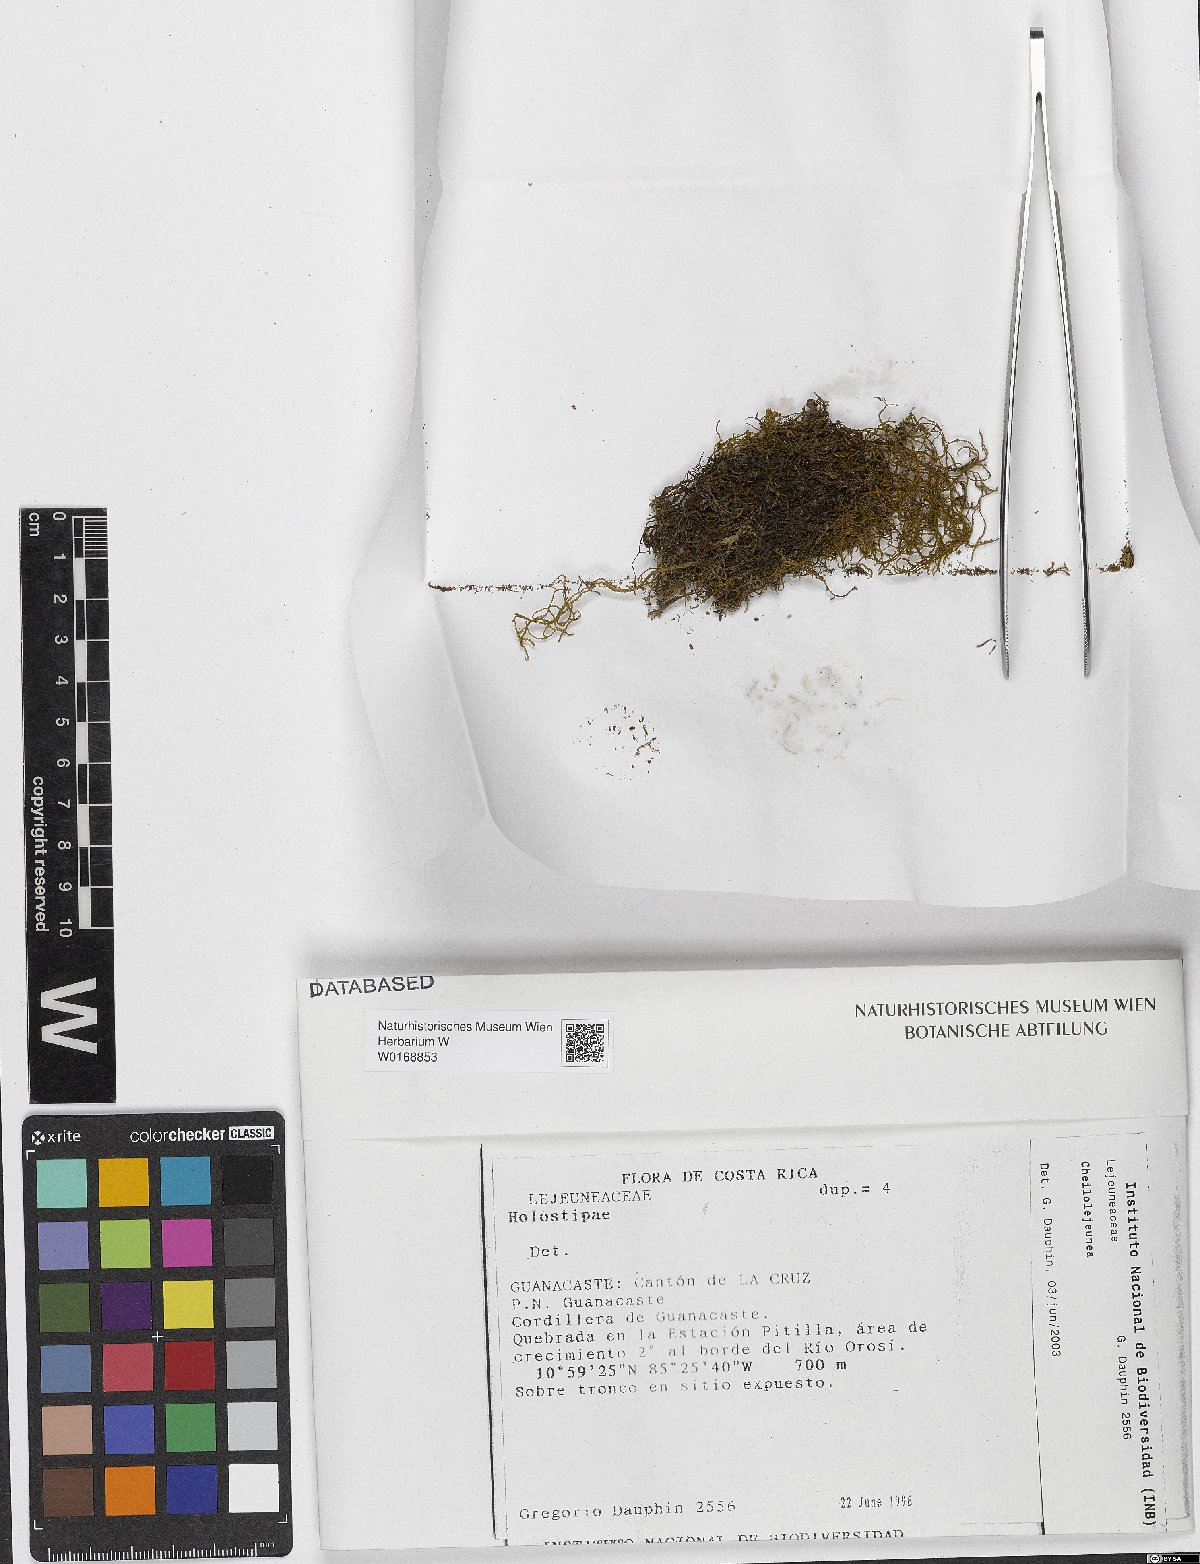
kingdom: Plantae
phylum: Marchantiophyta
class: Jungermanniopsida
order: Porellales
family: Lejeuneaceae
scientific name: Lejeuneaceae
